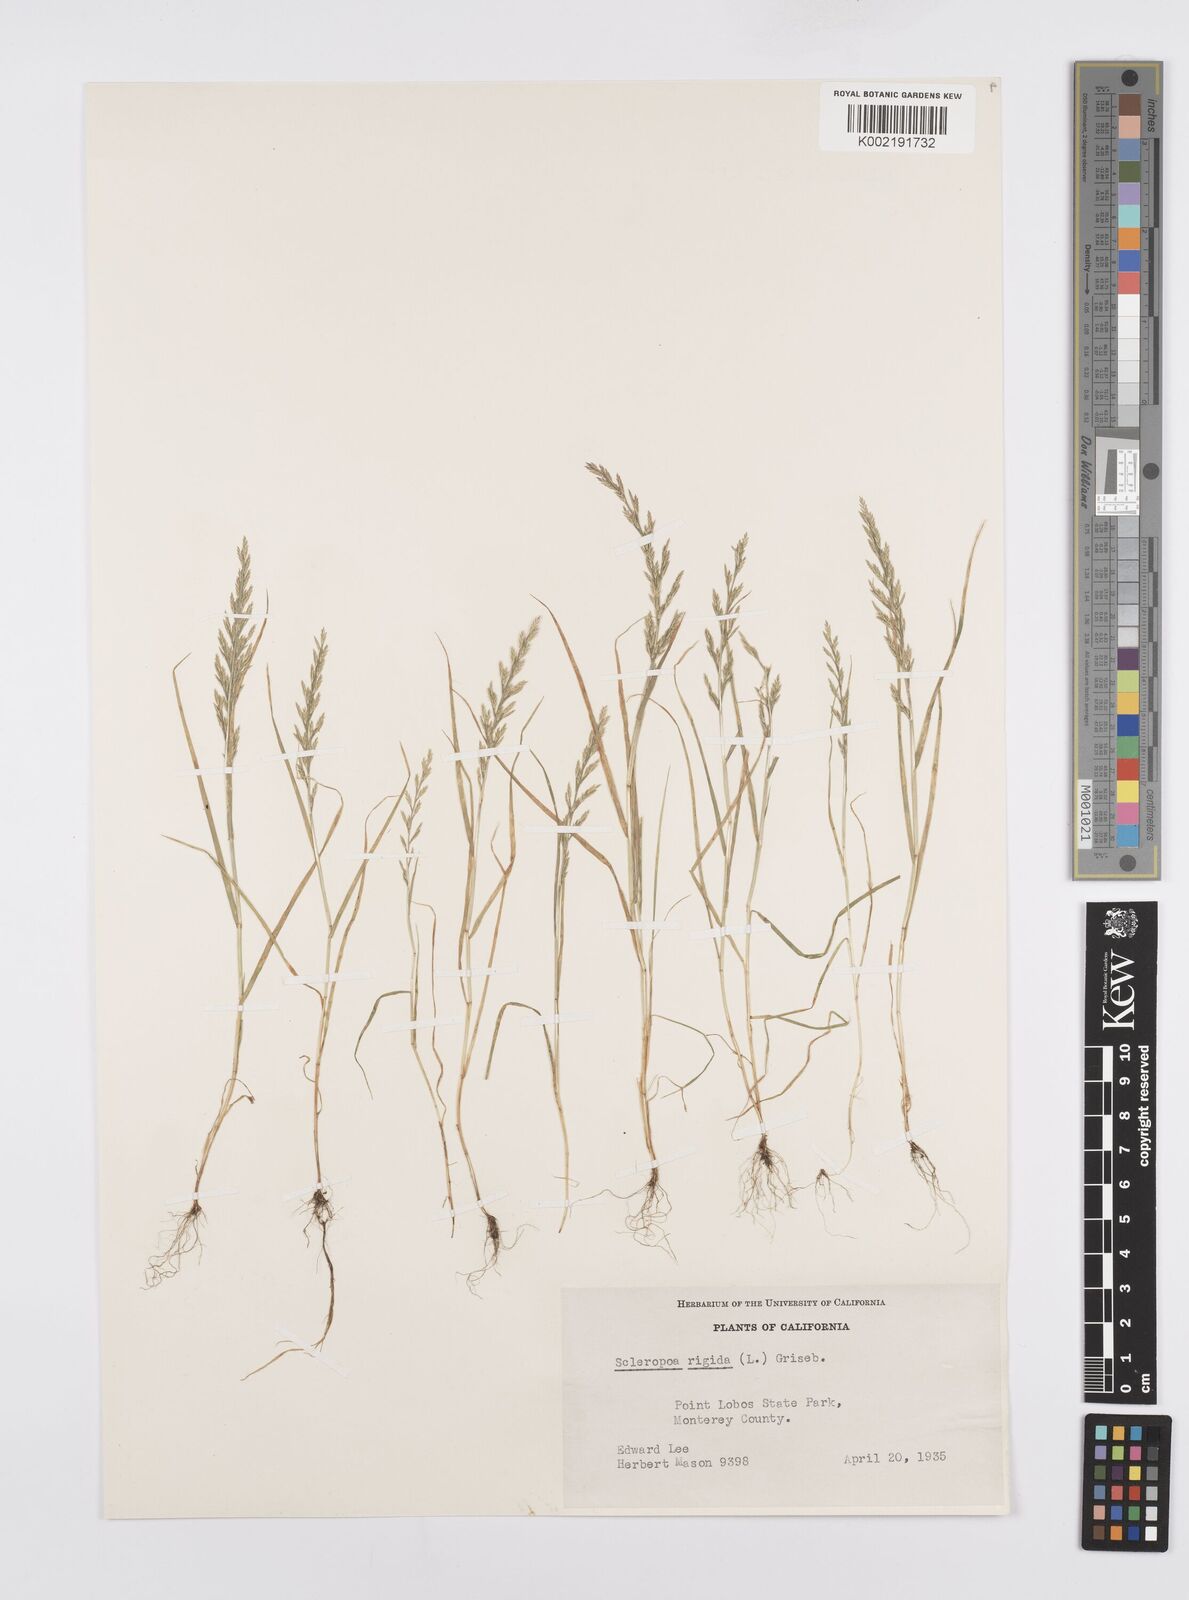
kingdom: Plantae
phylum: Tracheophyta
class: Liliopsida
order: Poales
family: Poaceae
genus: Catapodium
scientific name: Catapodium rigidum
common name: Fern-grass
